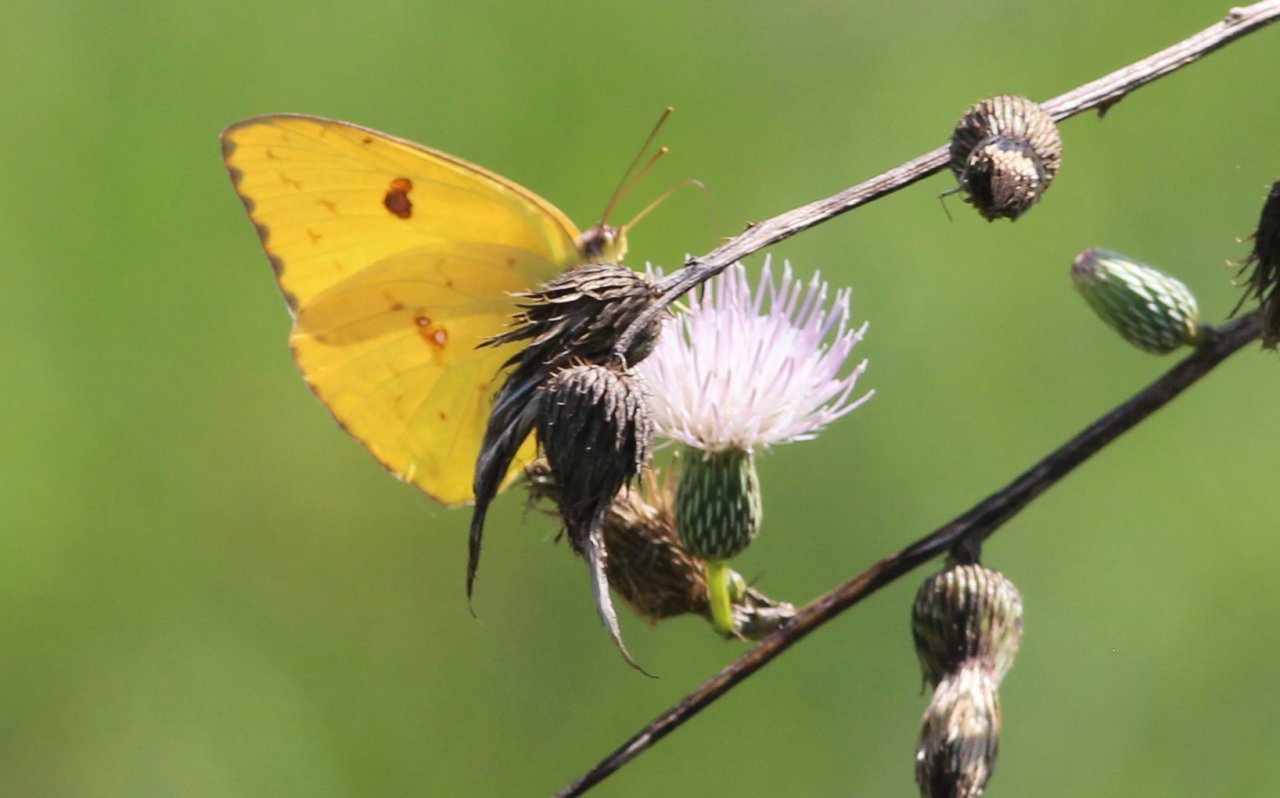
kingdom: Animalia
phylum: Arthropoda
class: Insecta
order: Lepidoptera
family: Pieridae
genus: Phoebis
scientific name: Phoebis philea
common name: Orange-barred Sulphur
